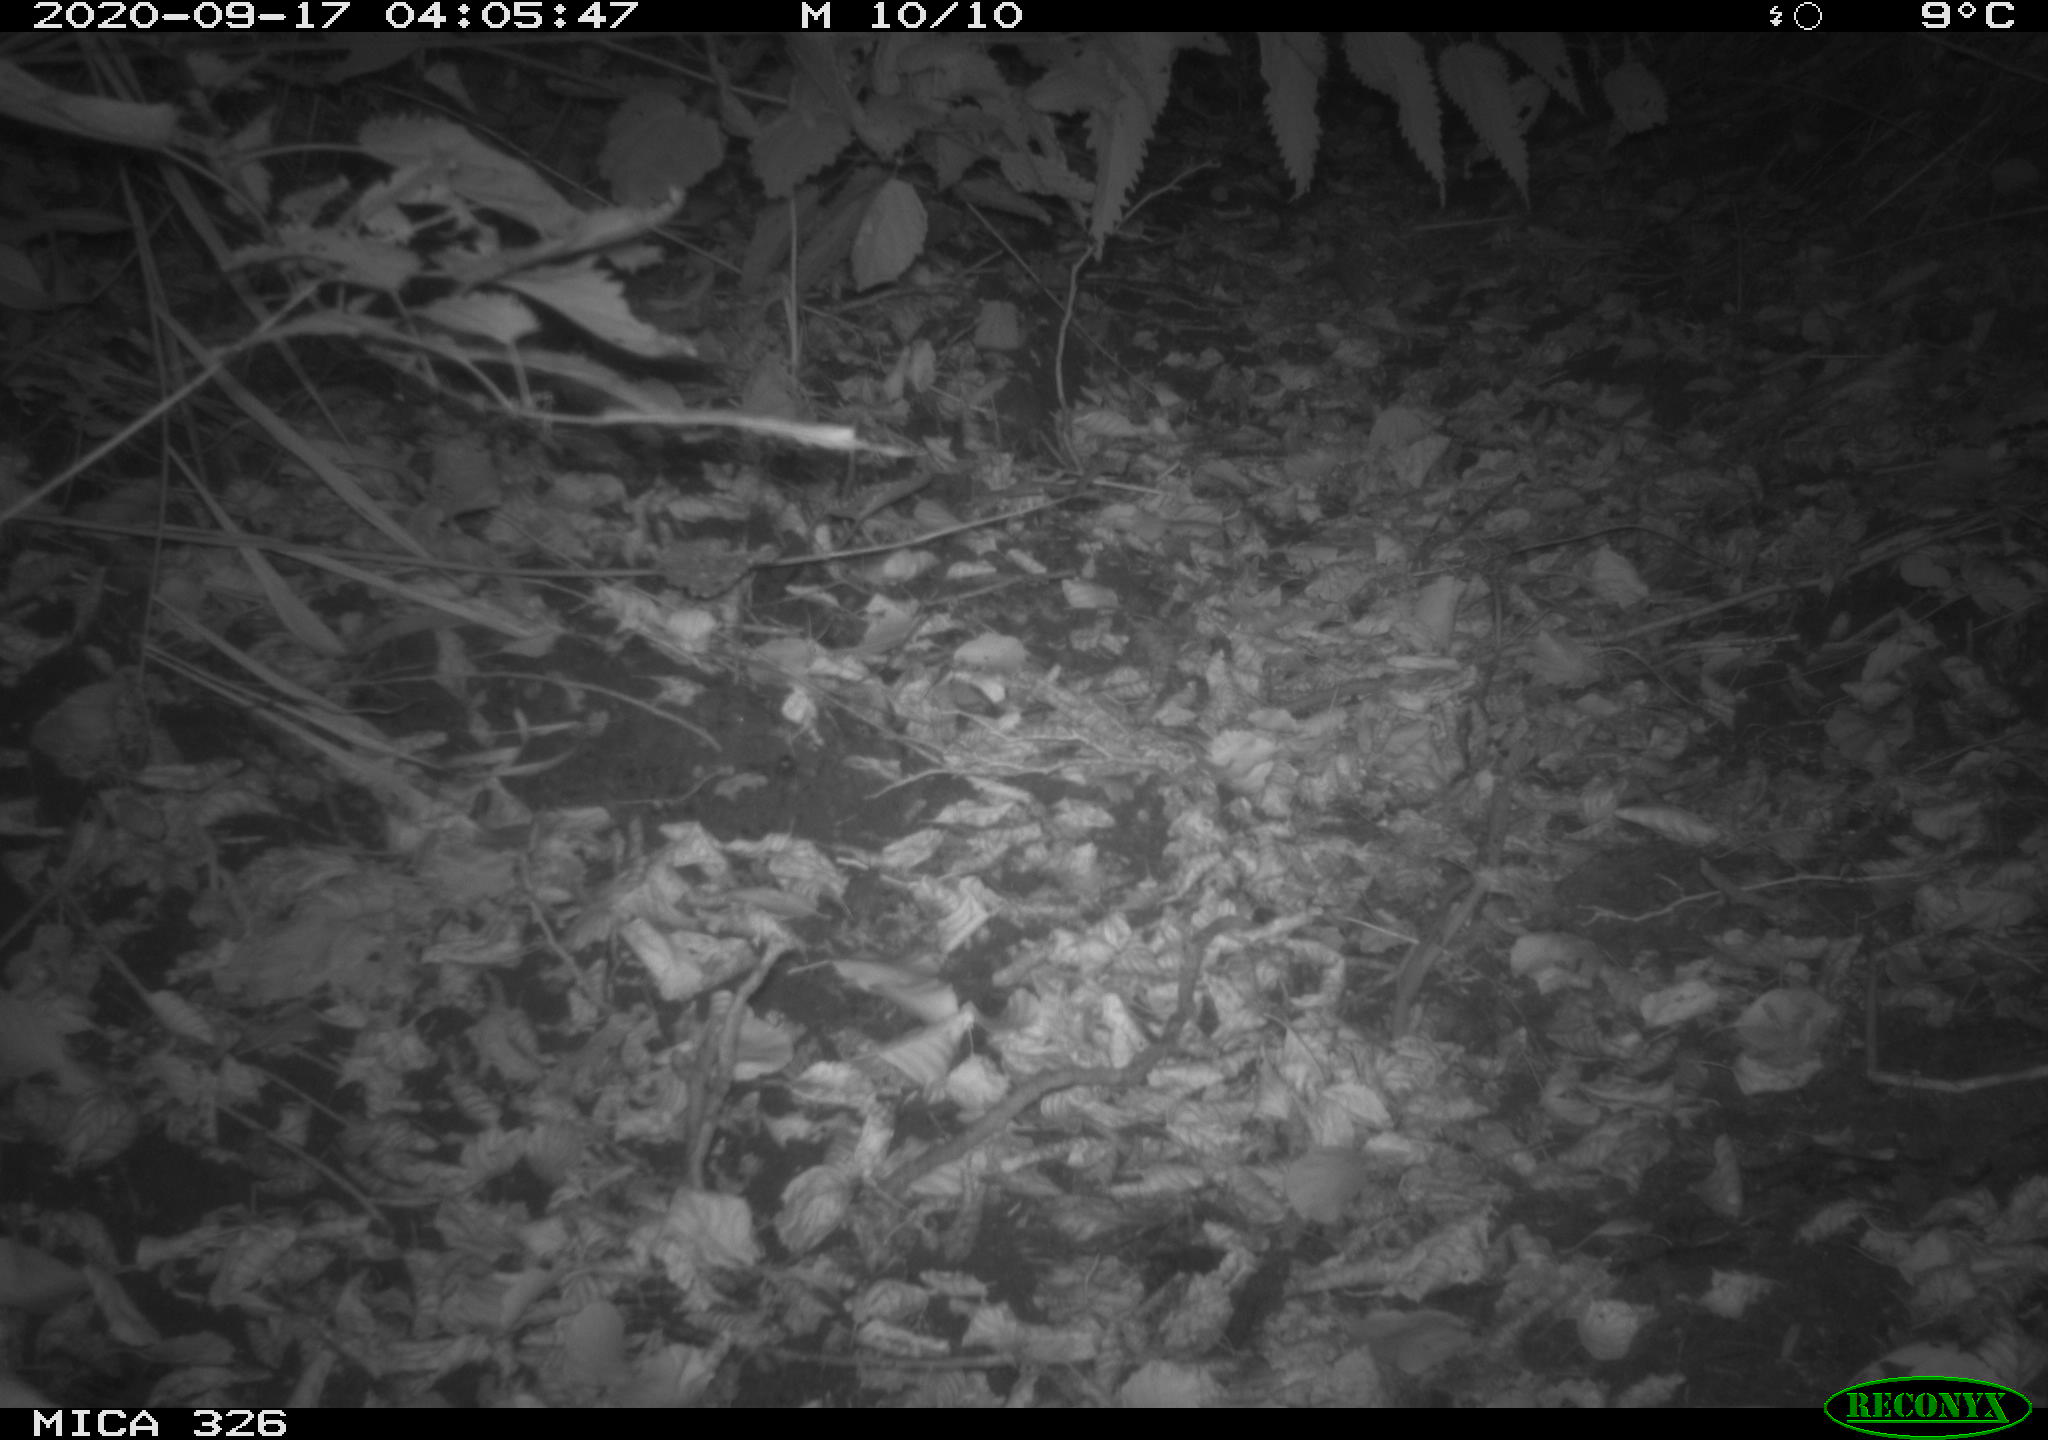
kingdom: Animalia
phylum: Chordata
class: Mammalia
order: Carnivora
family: Canidae
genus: Vulpes
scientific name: Vulpes vulpes
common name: Red fox
